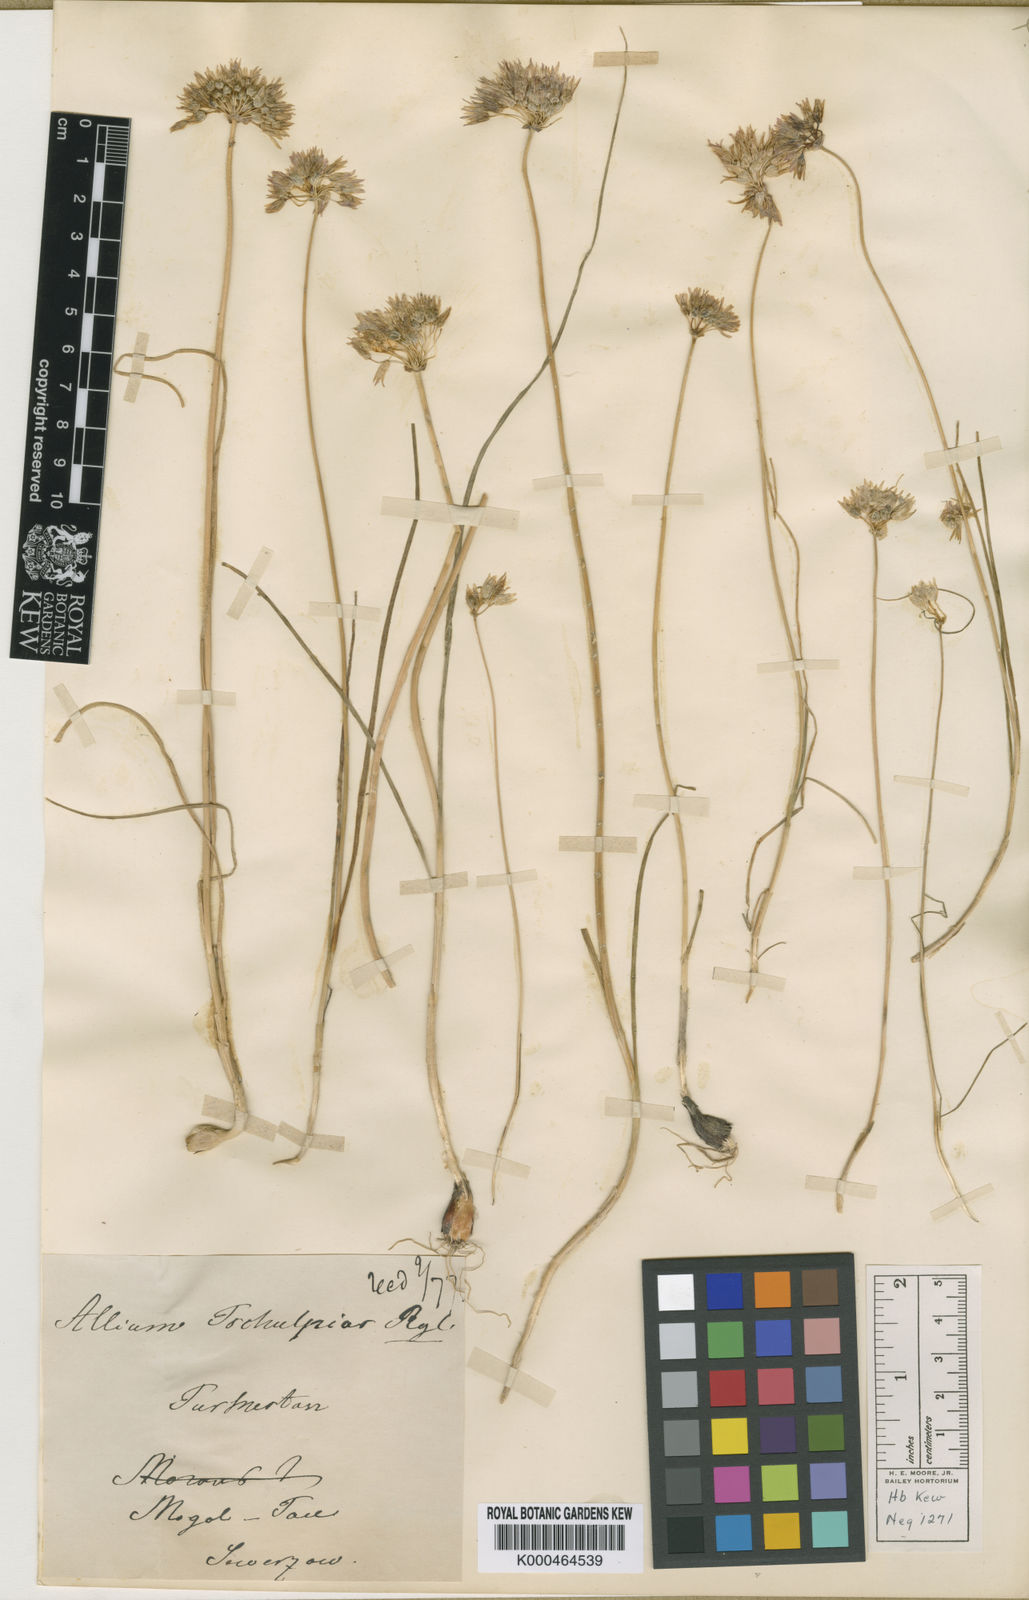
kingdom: Plantae
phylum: Tracheophyta
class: Liliopsida
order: Asparagales
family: Amaryllidaceae
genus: Allium
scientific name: Allium griffithianum
